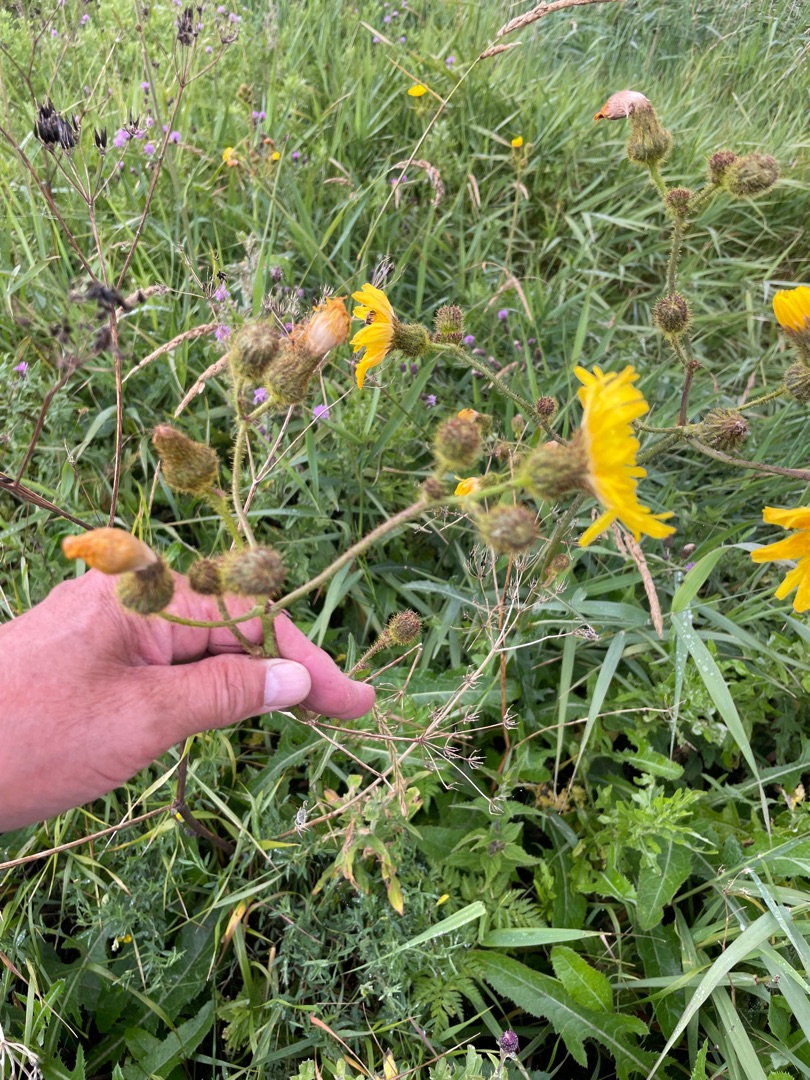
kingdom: Plantae
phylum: Tracheophyta
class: Magnoliopsida
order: Asterales
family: Asteraceae
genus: Sonchus
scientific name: Sonchus palustris
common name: Kær-svinemælk
